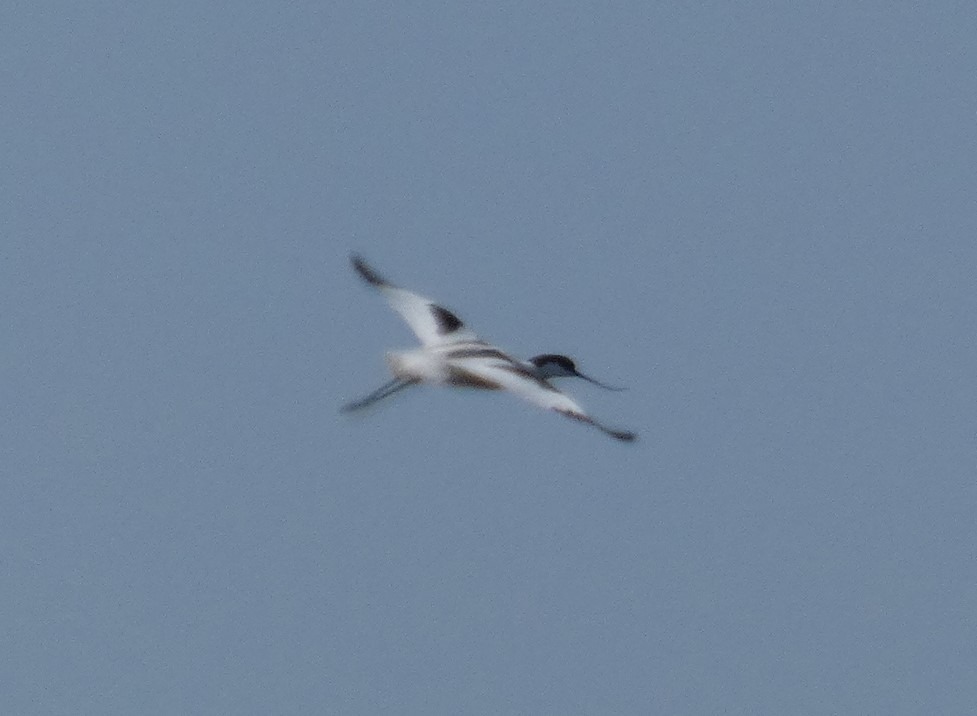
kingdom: Animalia
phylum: Chordata
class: Aves
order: Charadriiformes
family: Recurvirostridae
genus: Recurvirostra
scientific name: Recurvirostra avosetta
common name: Klyde
